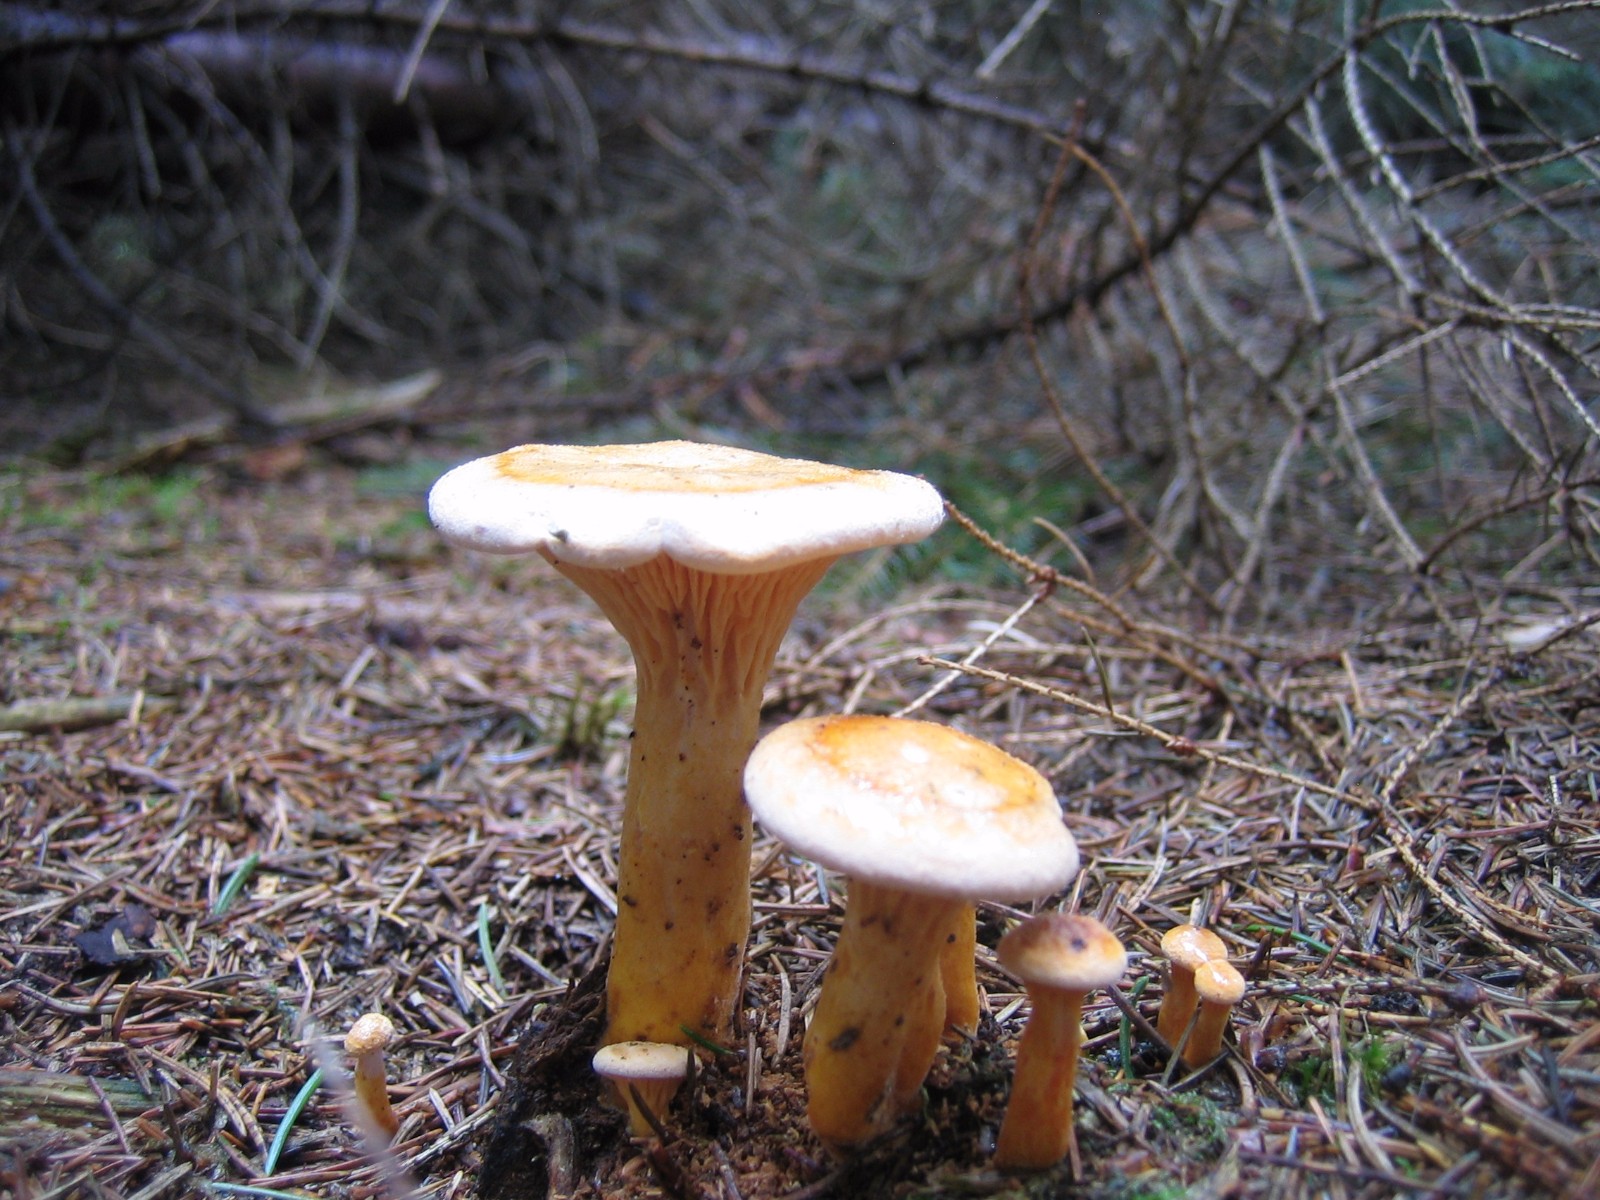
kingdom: Fungi
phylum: Basidiomycota
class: Agaricomycetes
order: Boletales
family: Hygrophoropsidaceae
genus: Hygrophoropsis
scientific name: Hygrophoropsis aurantiaca
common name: almindelig orangekantarel
